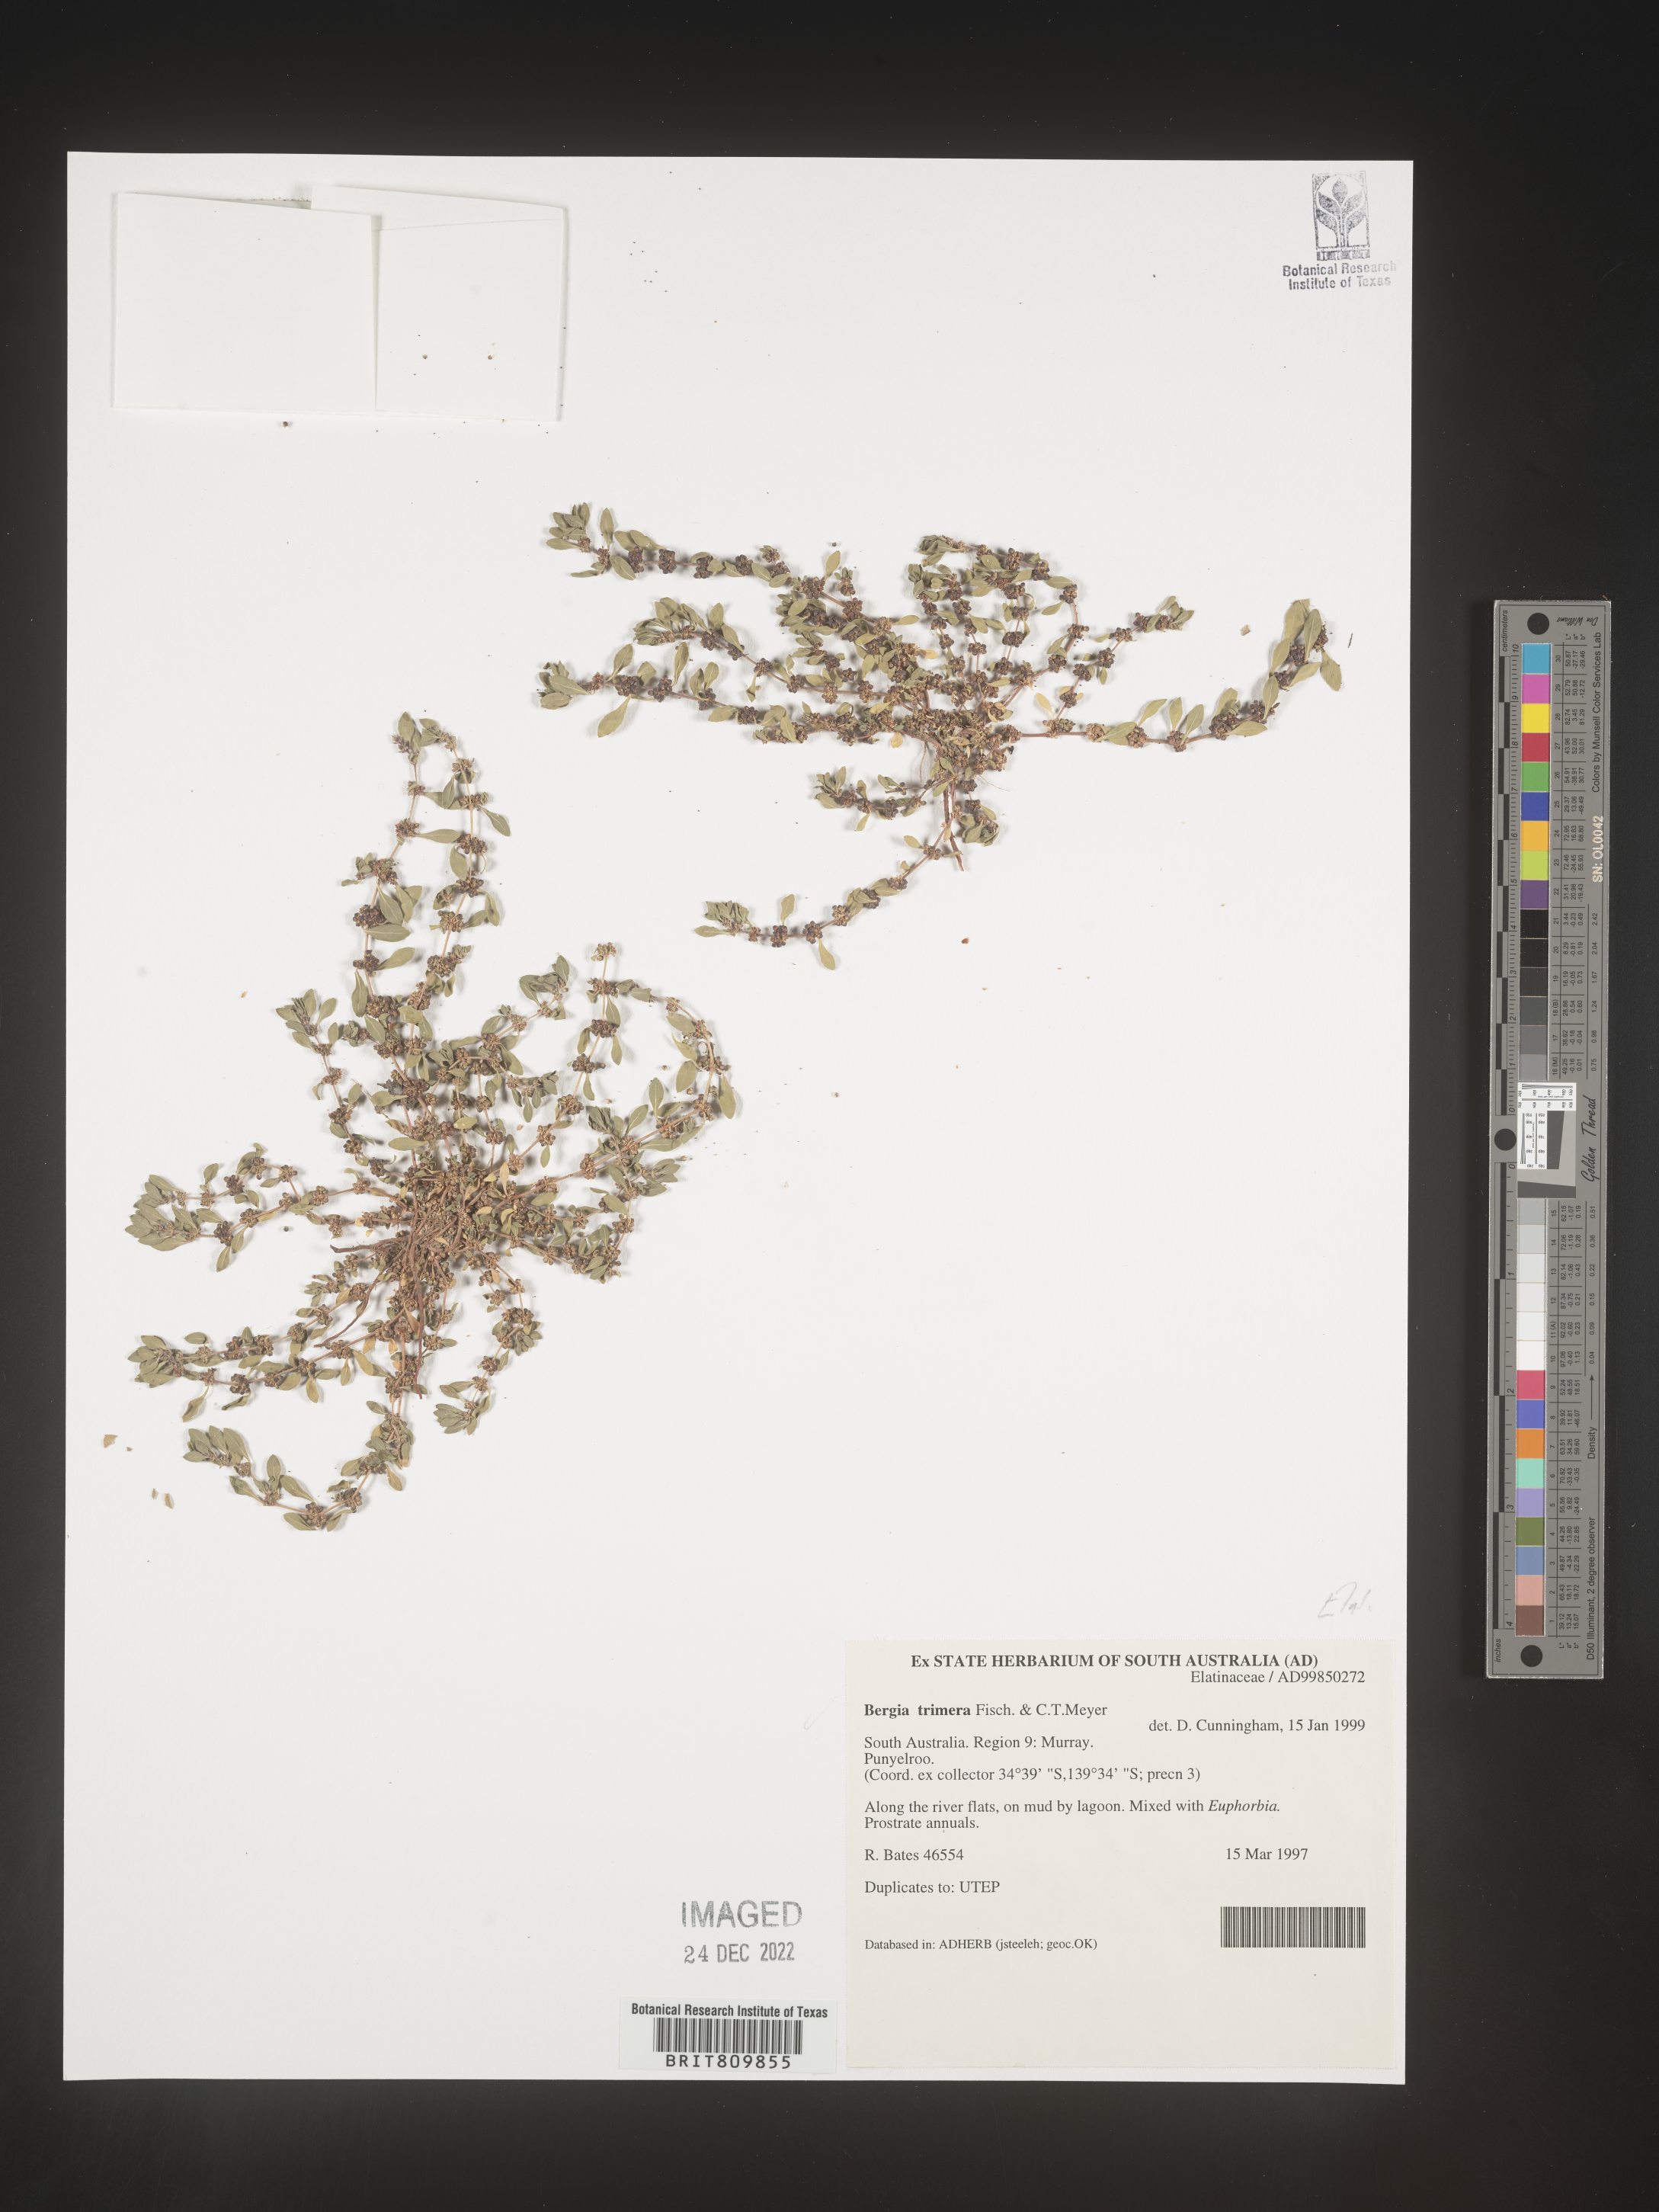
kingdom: Plantae
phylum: Tracheophyta
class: Magnoliopsida
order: Malpighiales
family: Elatinaceae
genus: Bergia
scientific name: Bergia
